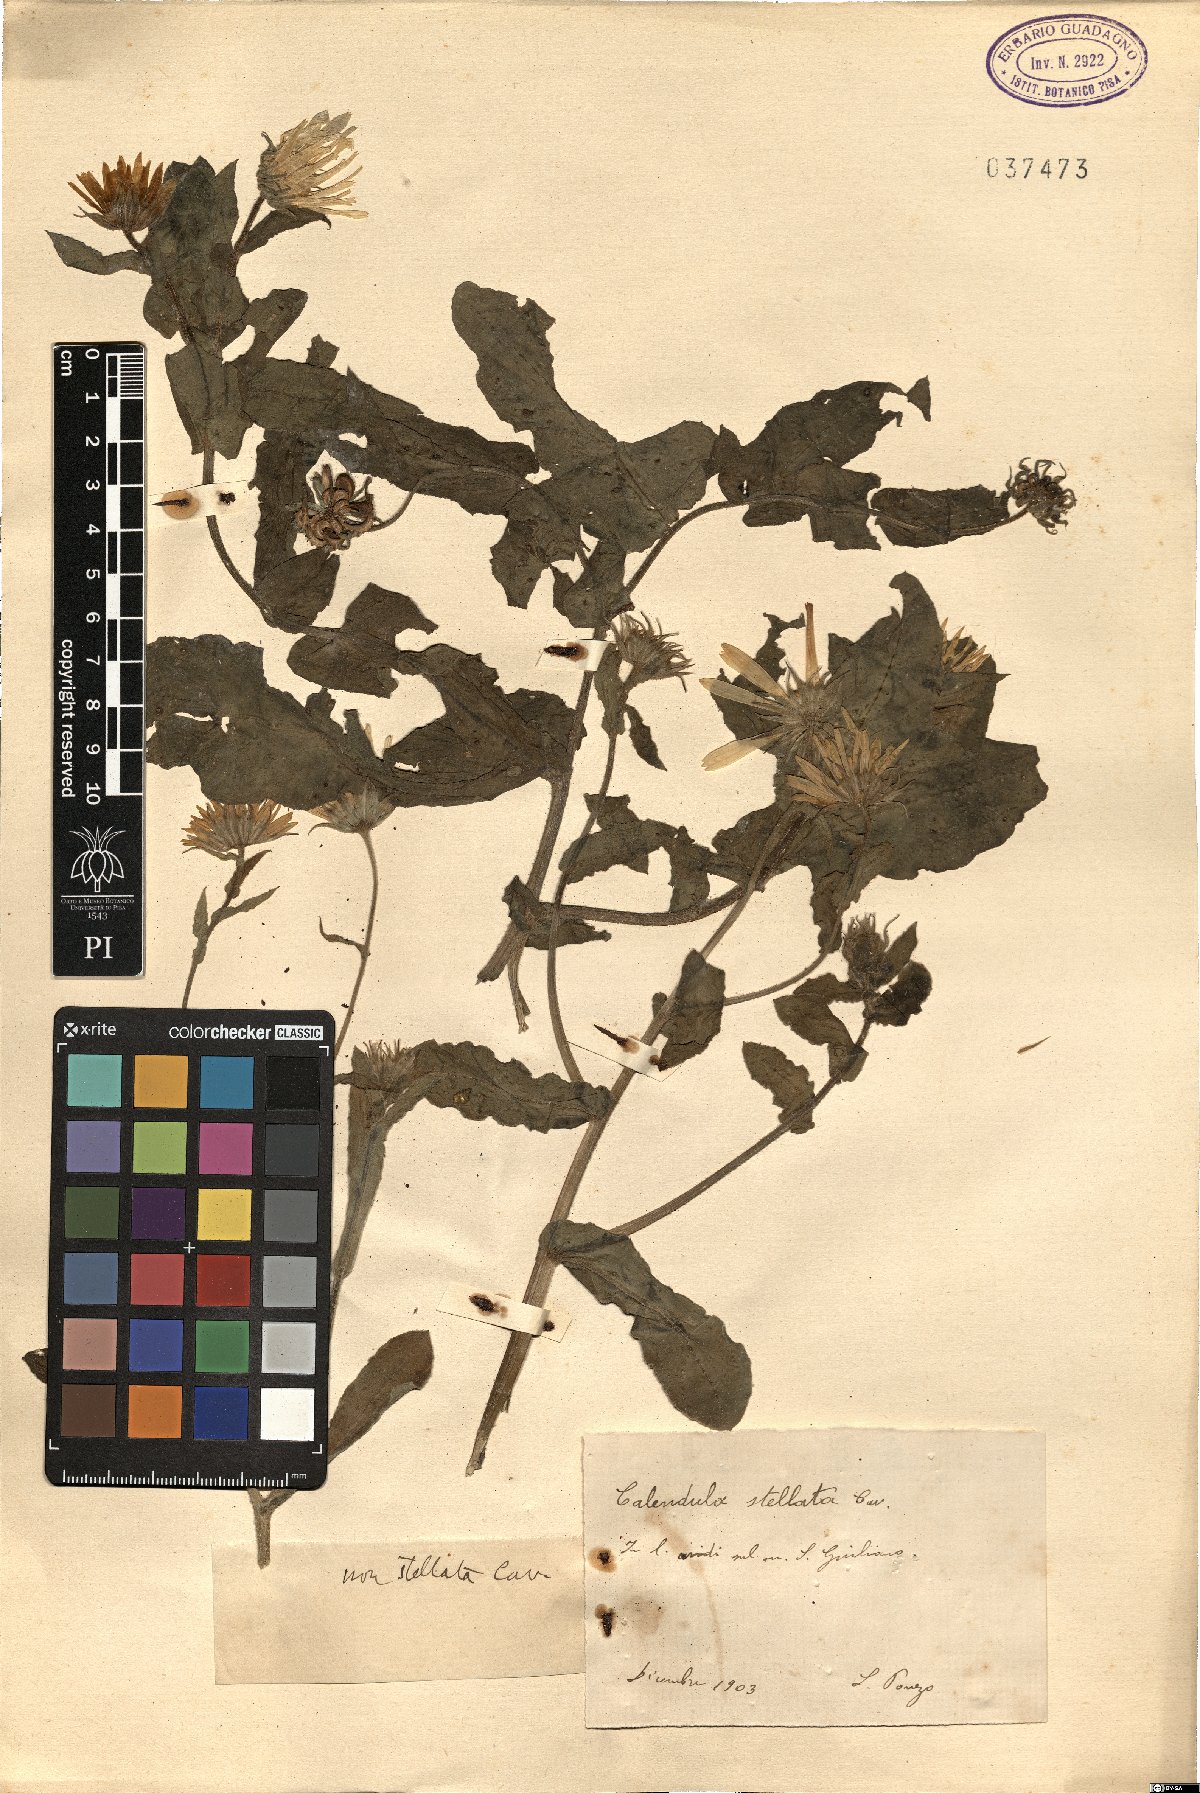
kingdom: Plantae
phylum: Tracheophyta
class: Magnoliopsida
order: Asterales
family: Asteraceae
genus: Calendula
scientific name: Calendula stellata
